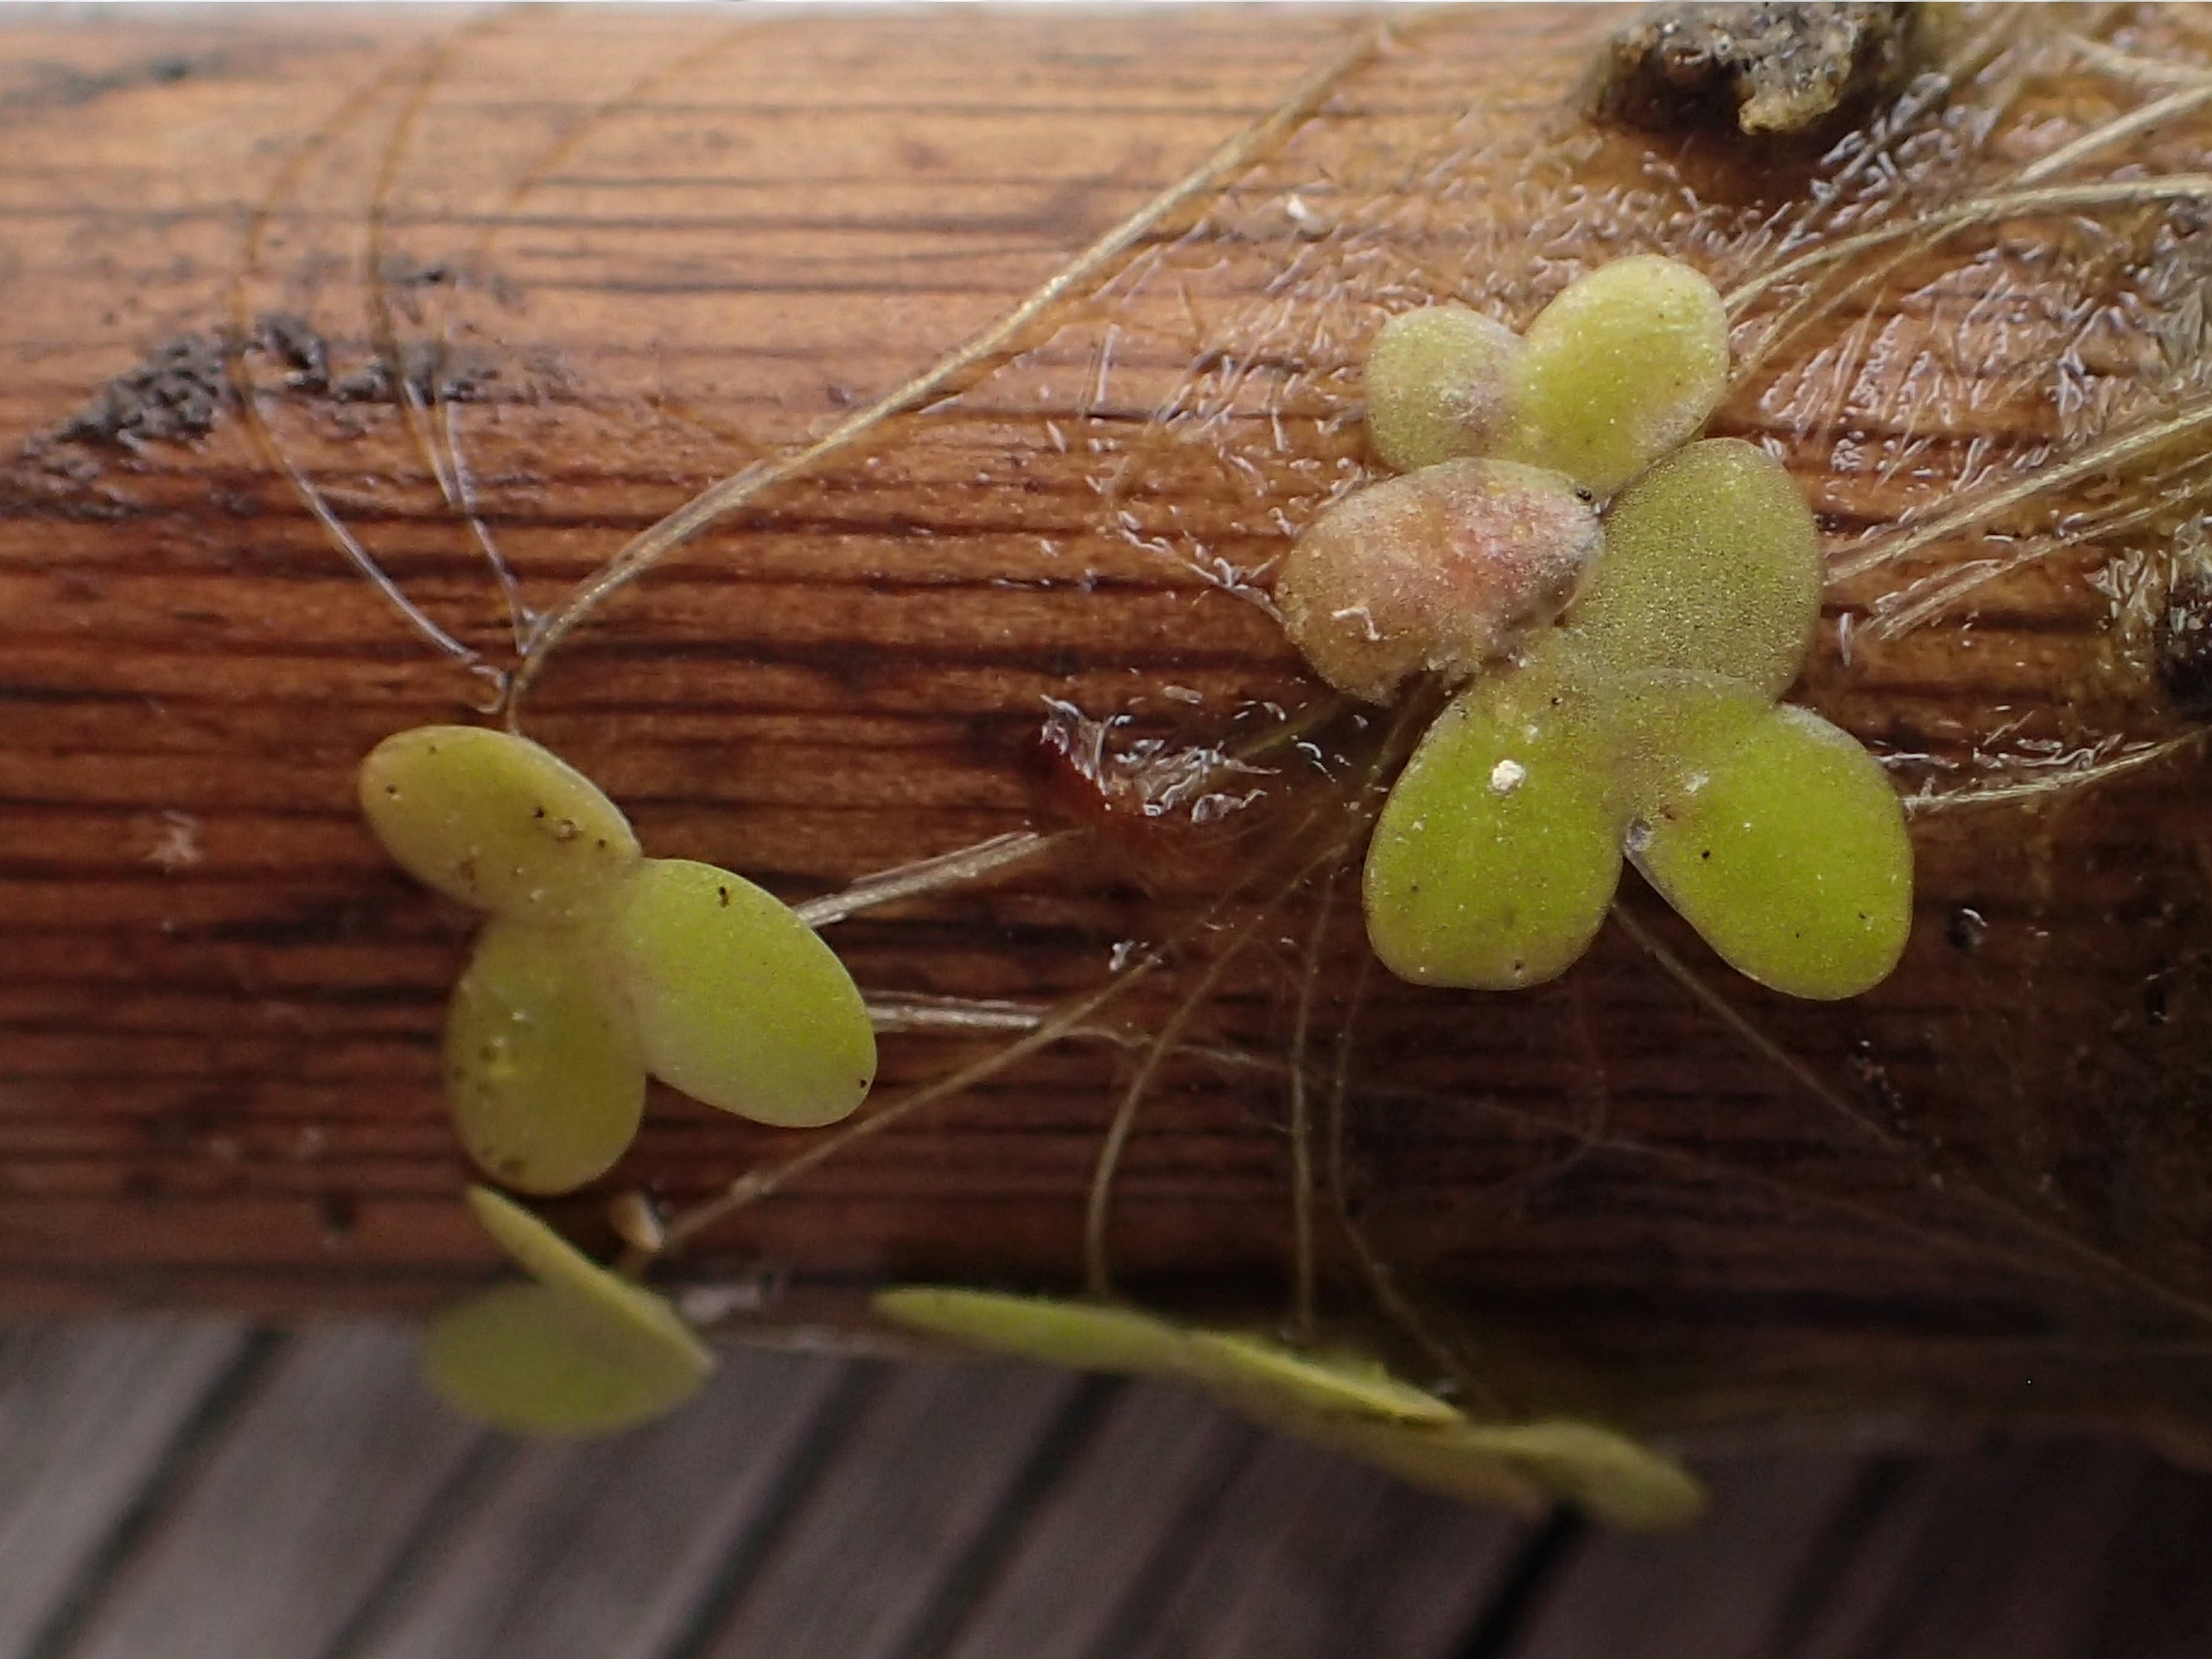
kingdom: Plantae
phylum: Tracheophyta
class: Liliopsida
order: Alismatales
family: Araceae
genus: Lemna
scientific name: Lemna minor
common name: Liden andemad
